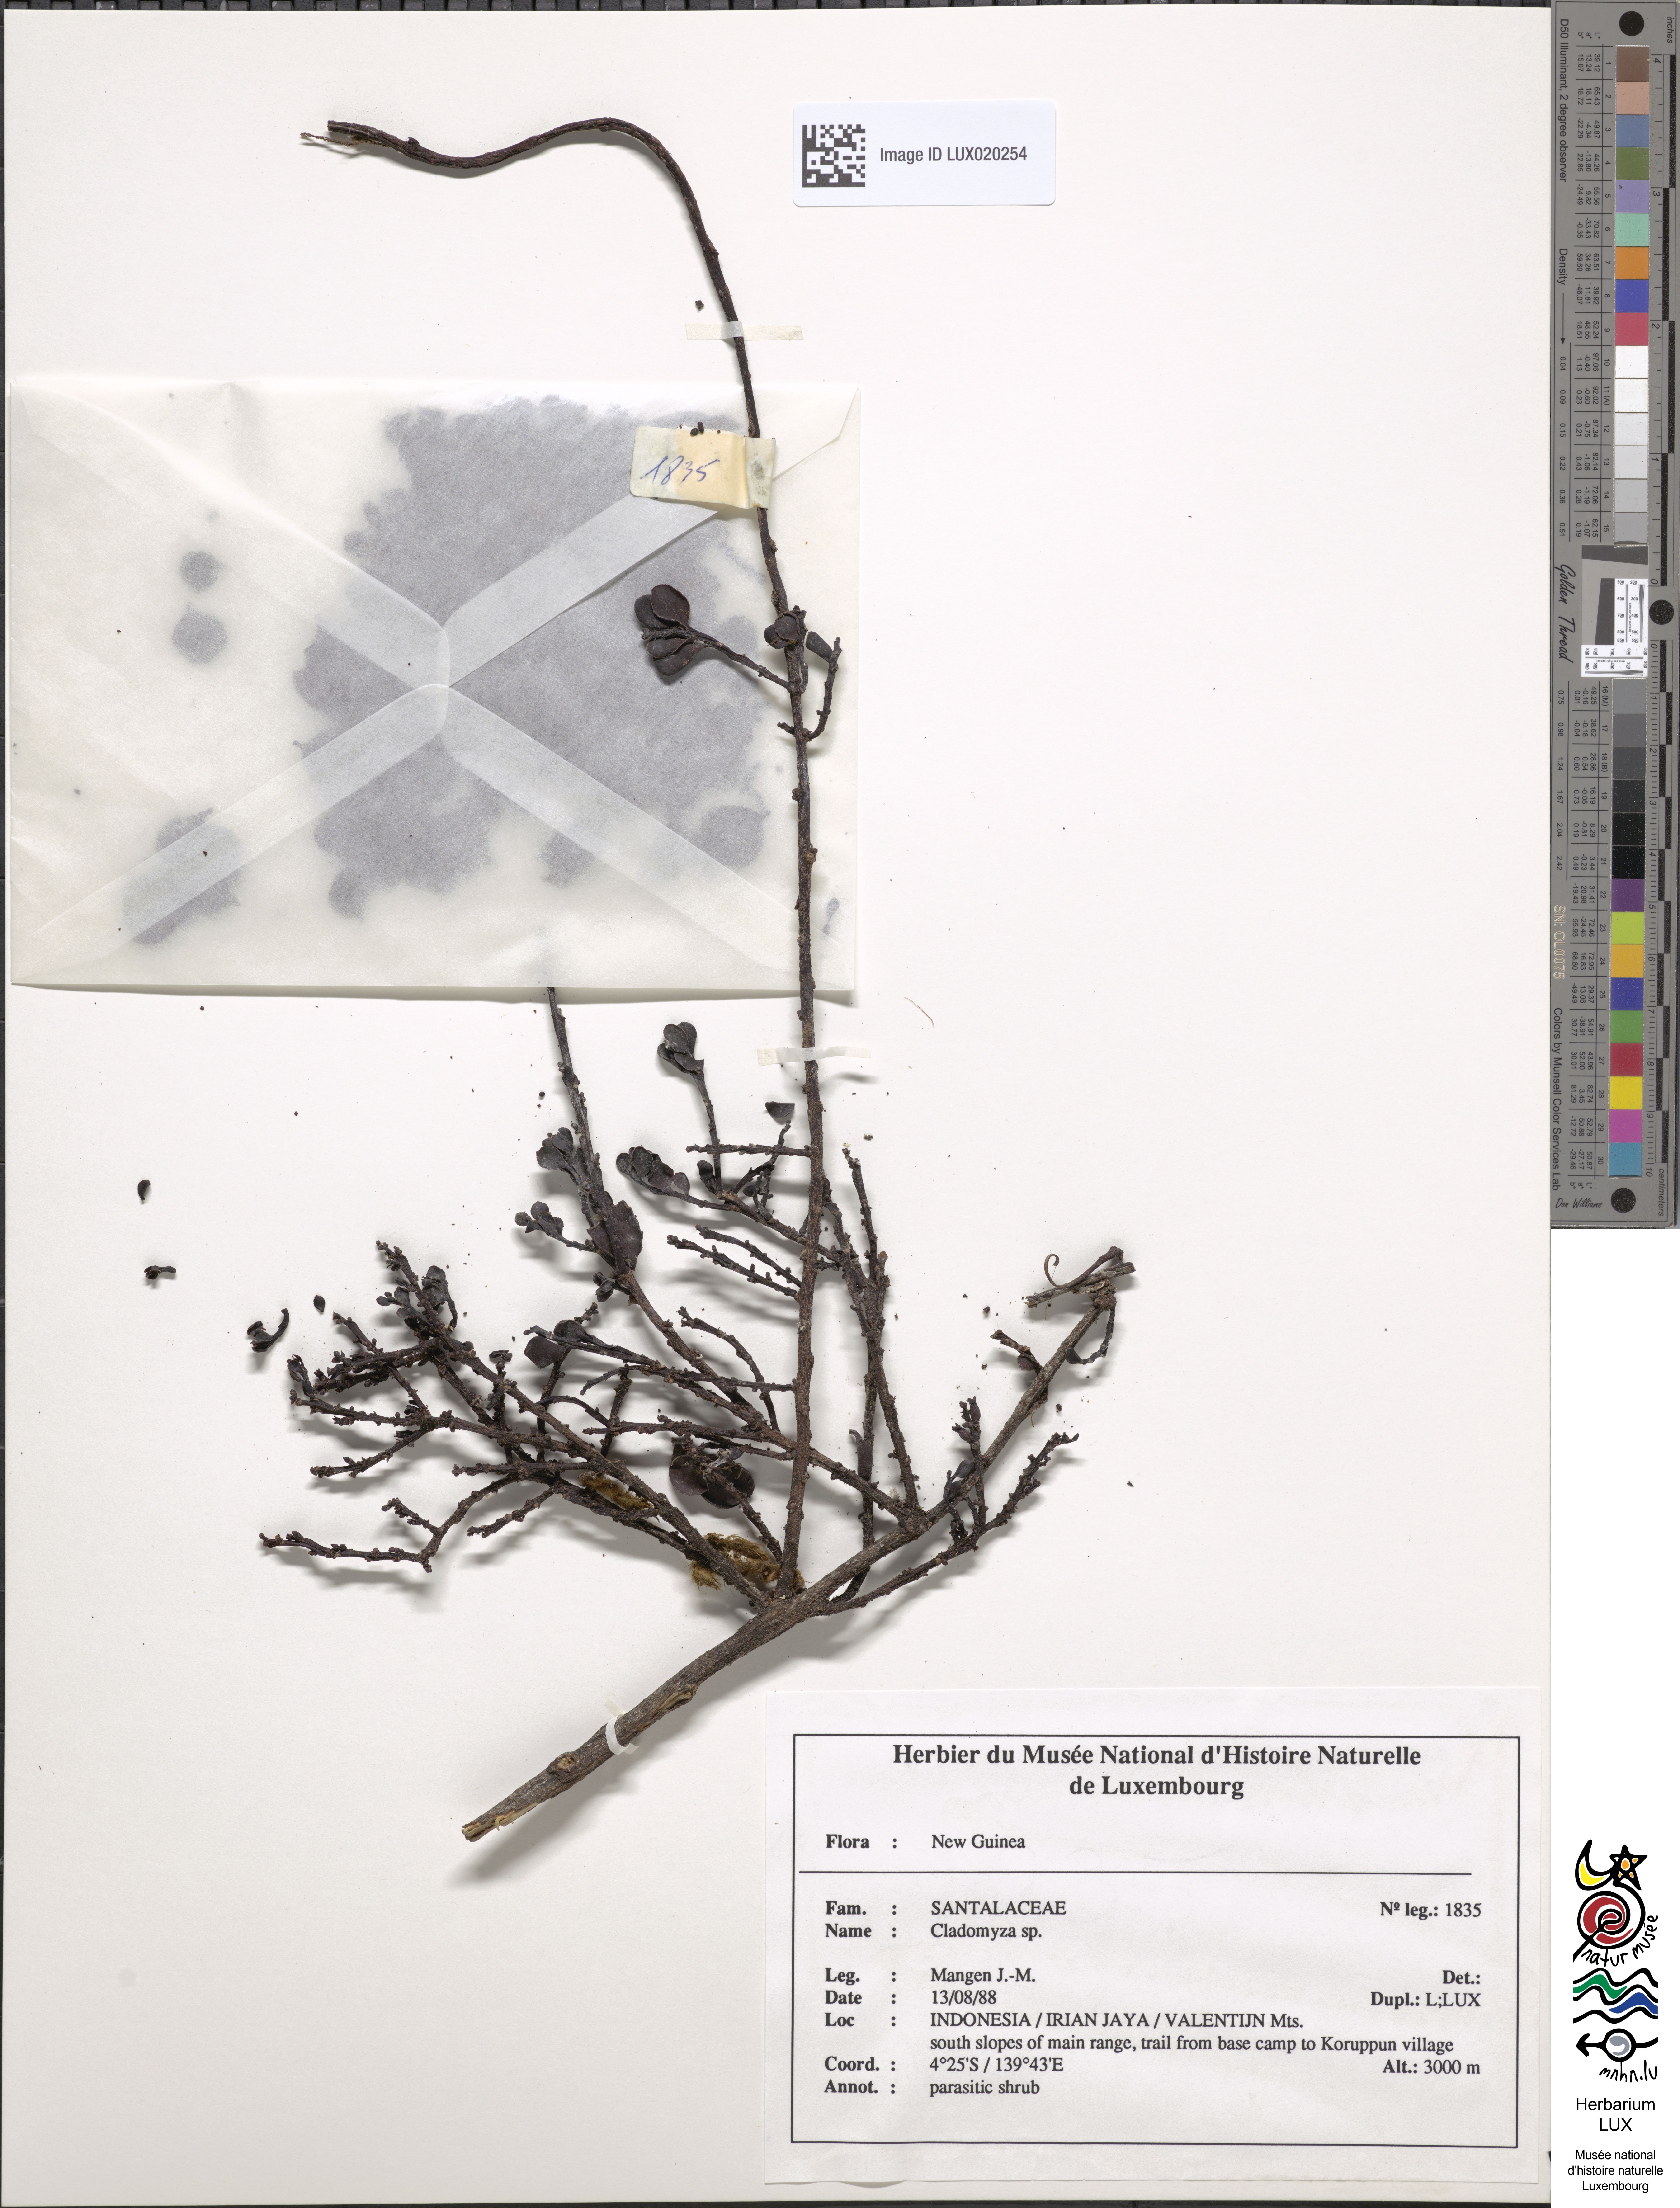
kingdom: Plantae
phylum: Tracheophyta
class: Magnoliopsida
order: Santalales
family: Amphorogynaceae
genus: Cladomyza
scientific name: Cladomyza
